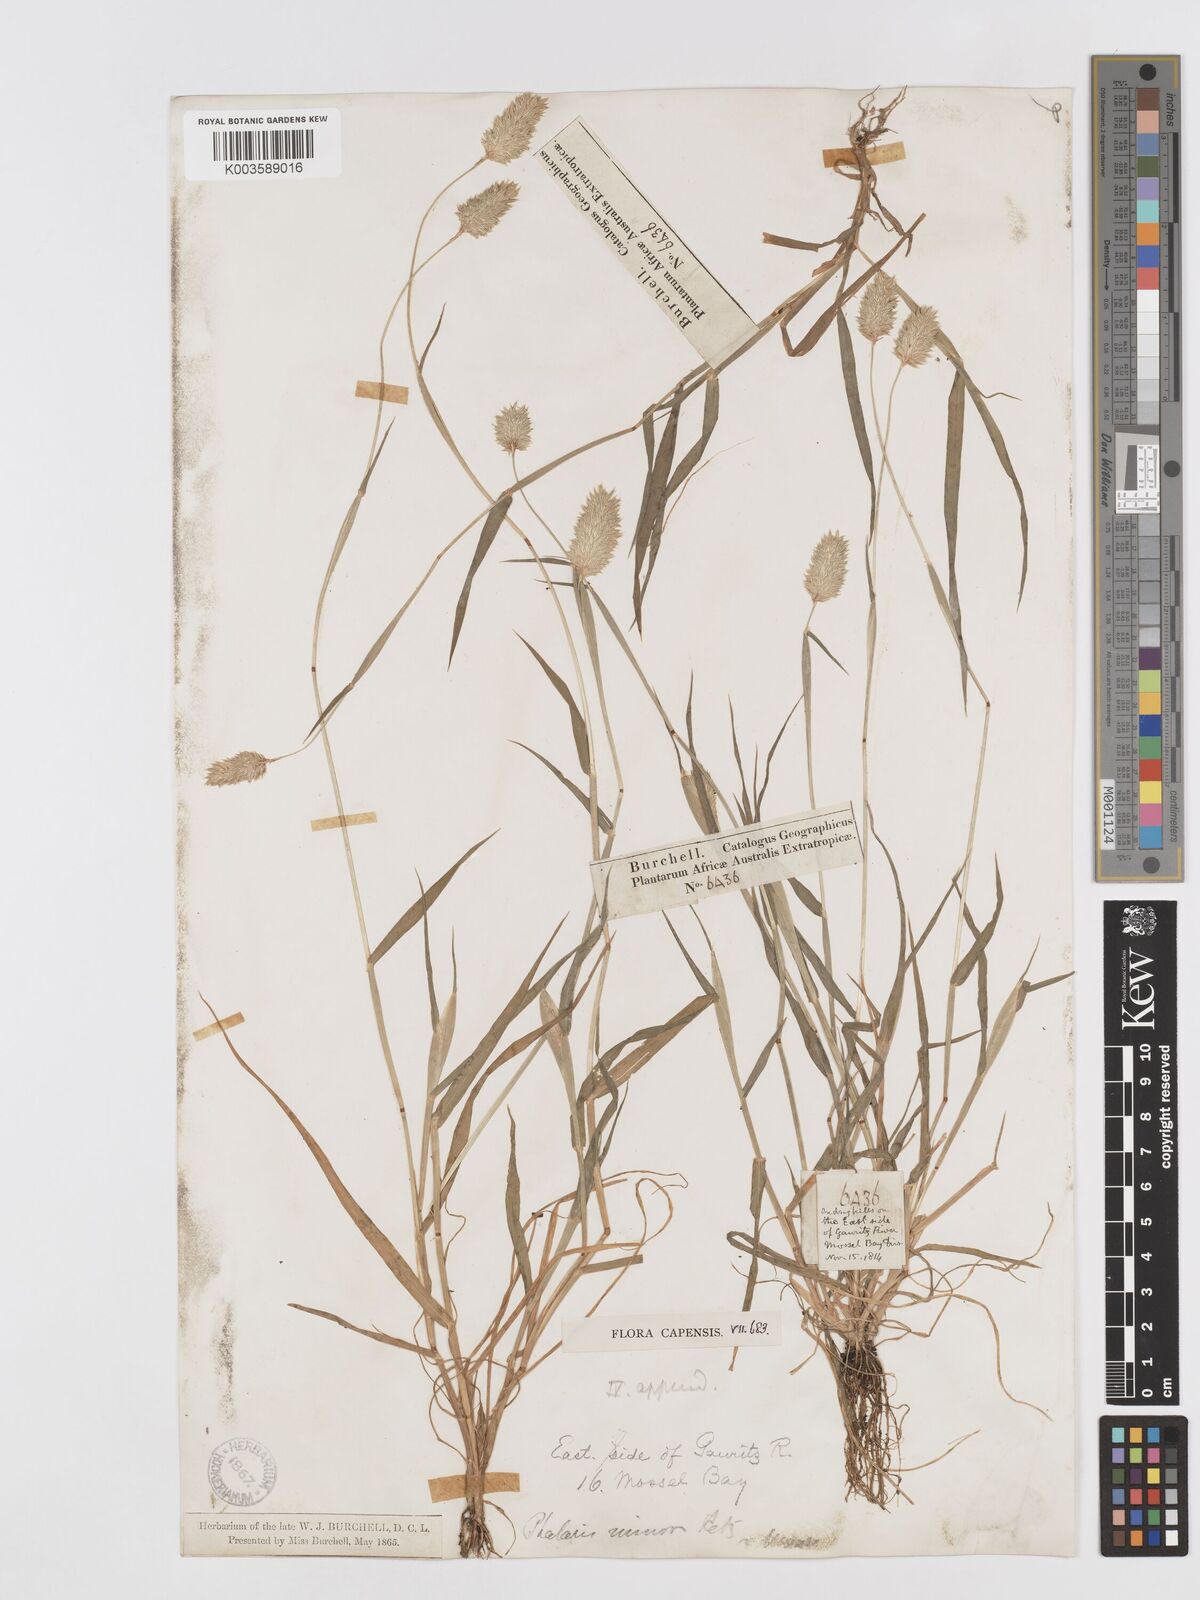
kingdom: Plantae
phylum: Tracheophyta
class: Liliopsida
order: Poales
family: Poaceae
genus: Phalaris
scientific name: Phalaris minor
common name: Littleseed canarygrass
